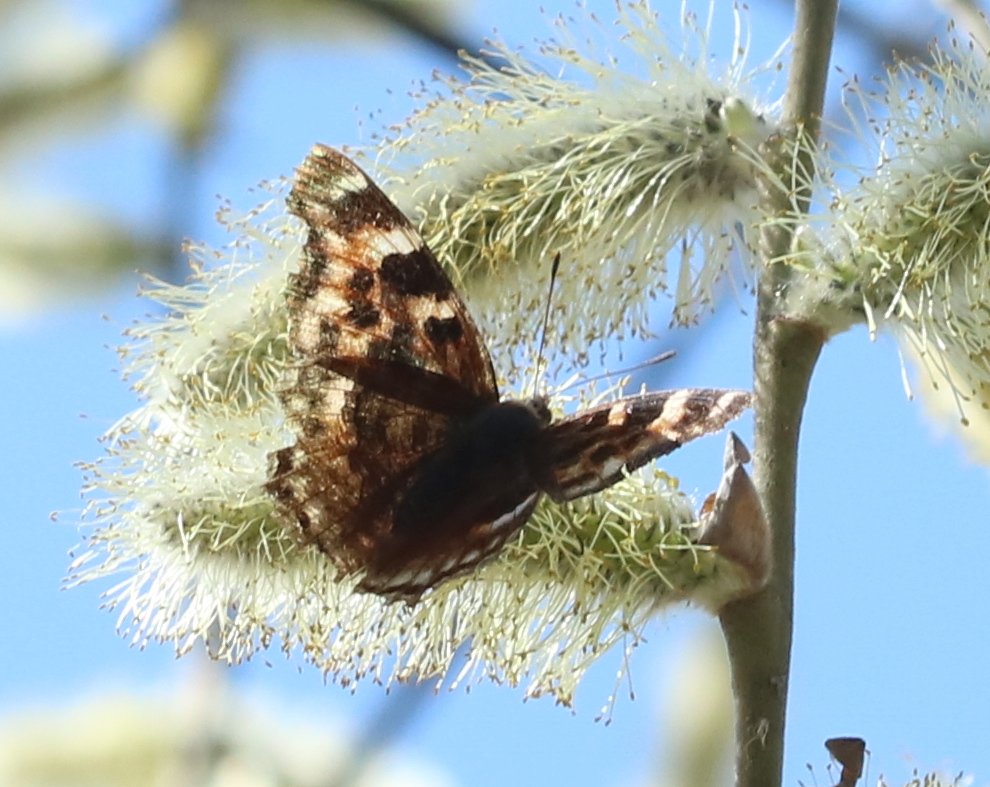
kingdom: Animalia
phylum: Arthropoda
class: Insecta
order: Lepidoptera
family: Nymphalidae
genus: Polygonia
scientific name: Polygonia vaualbum
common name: Compton Tortoiseshell
